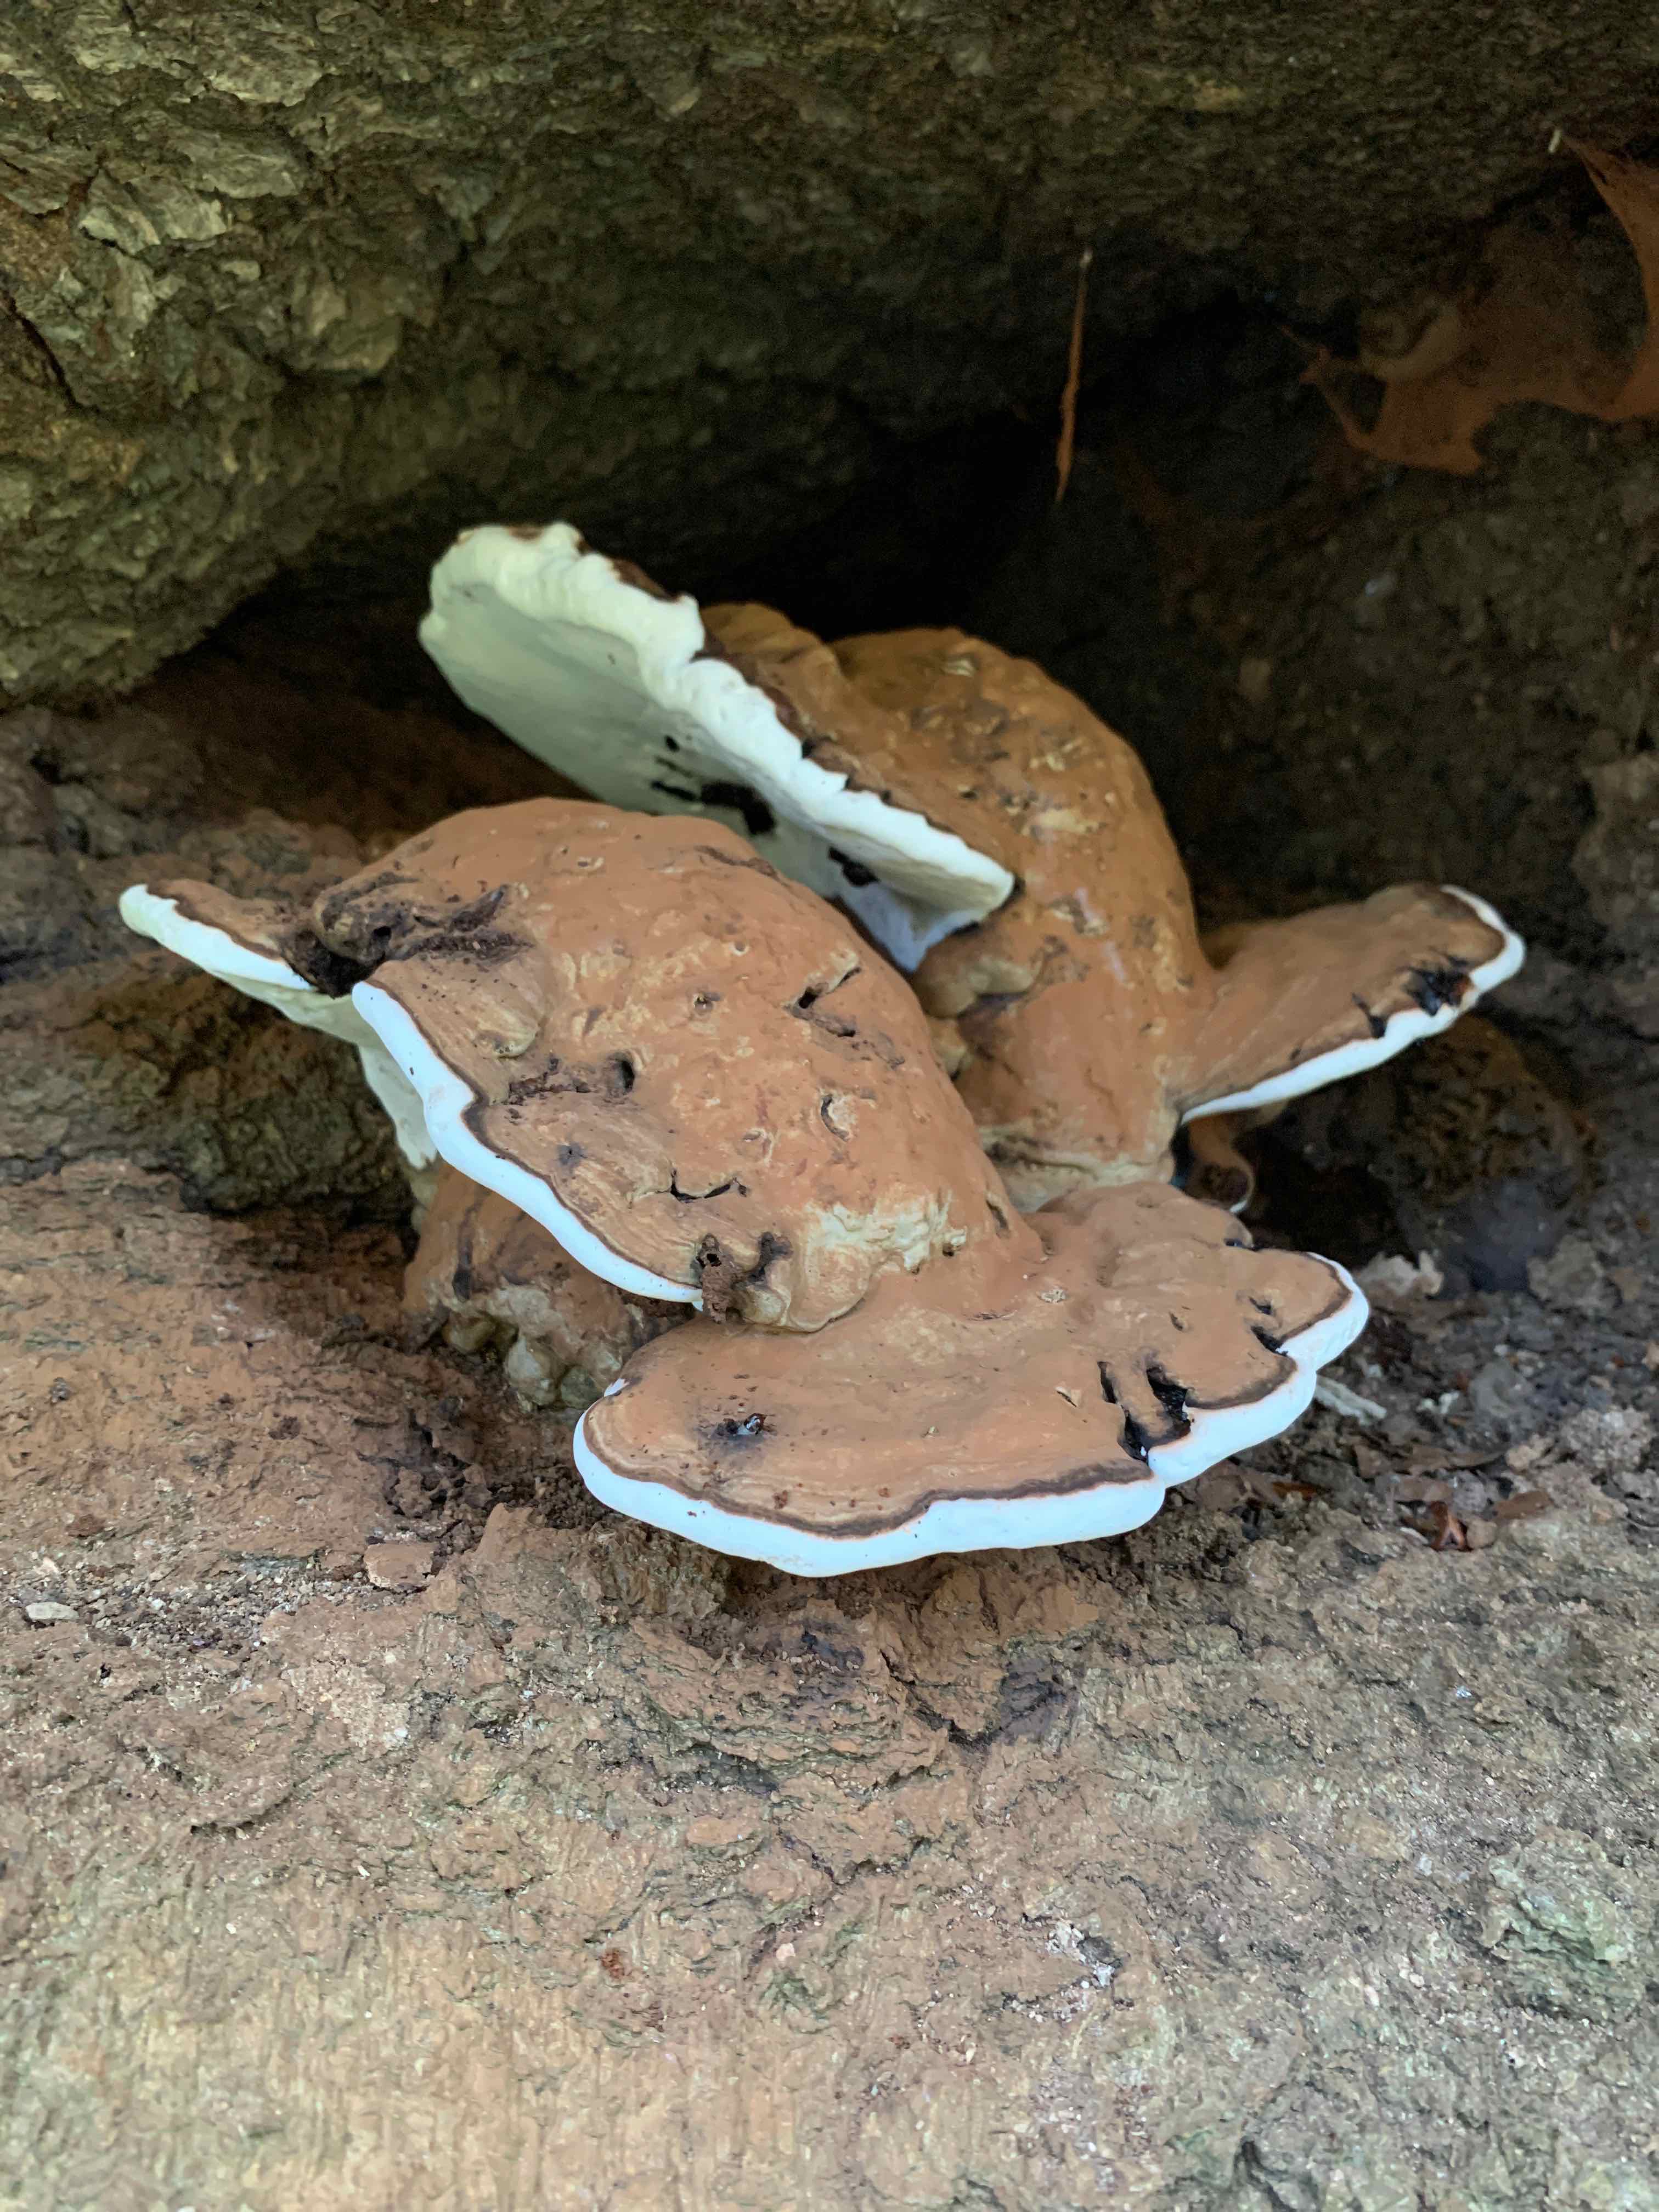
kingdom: Fungi
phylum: Basidiomycota
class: Agaricomycetes
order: Polyporales
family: Polyporaceae
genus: Ganoderma
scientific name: Ganoderma applanatum
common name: flad lakporesvamp
